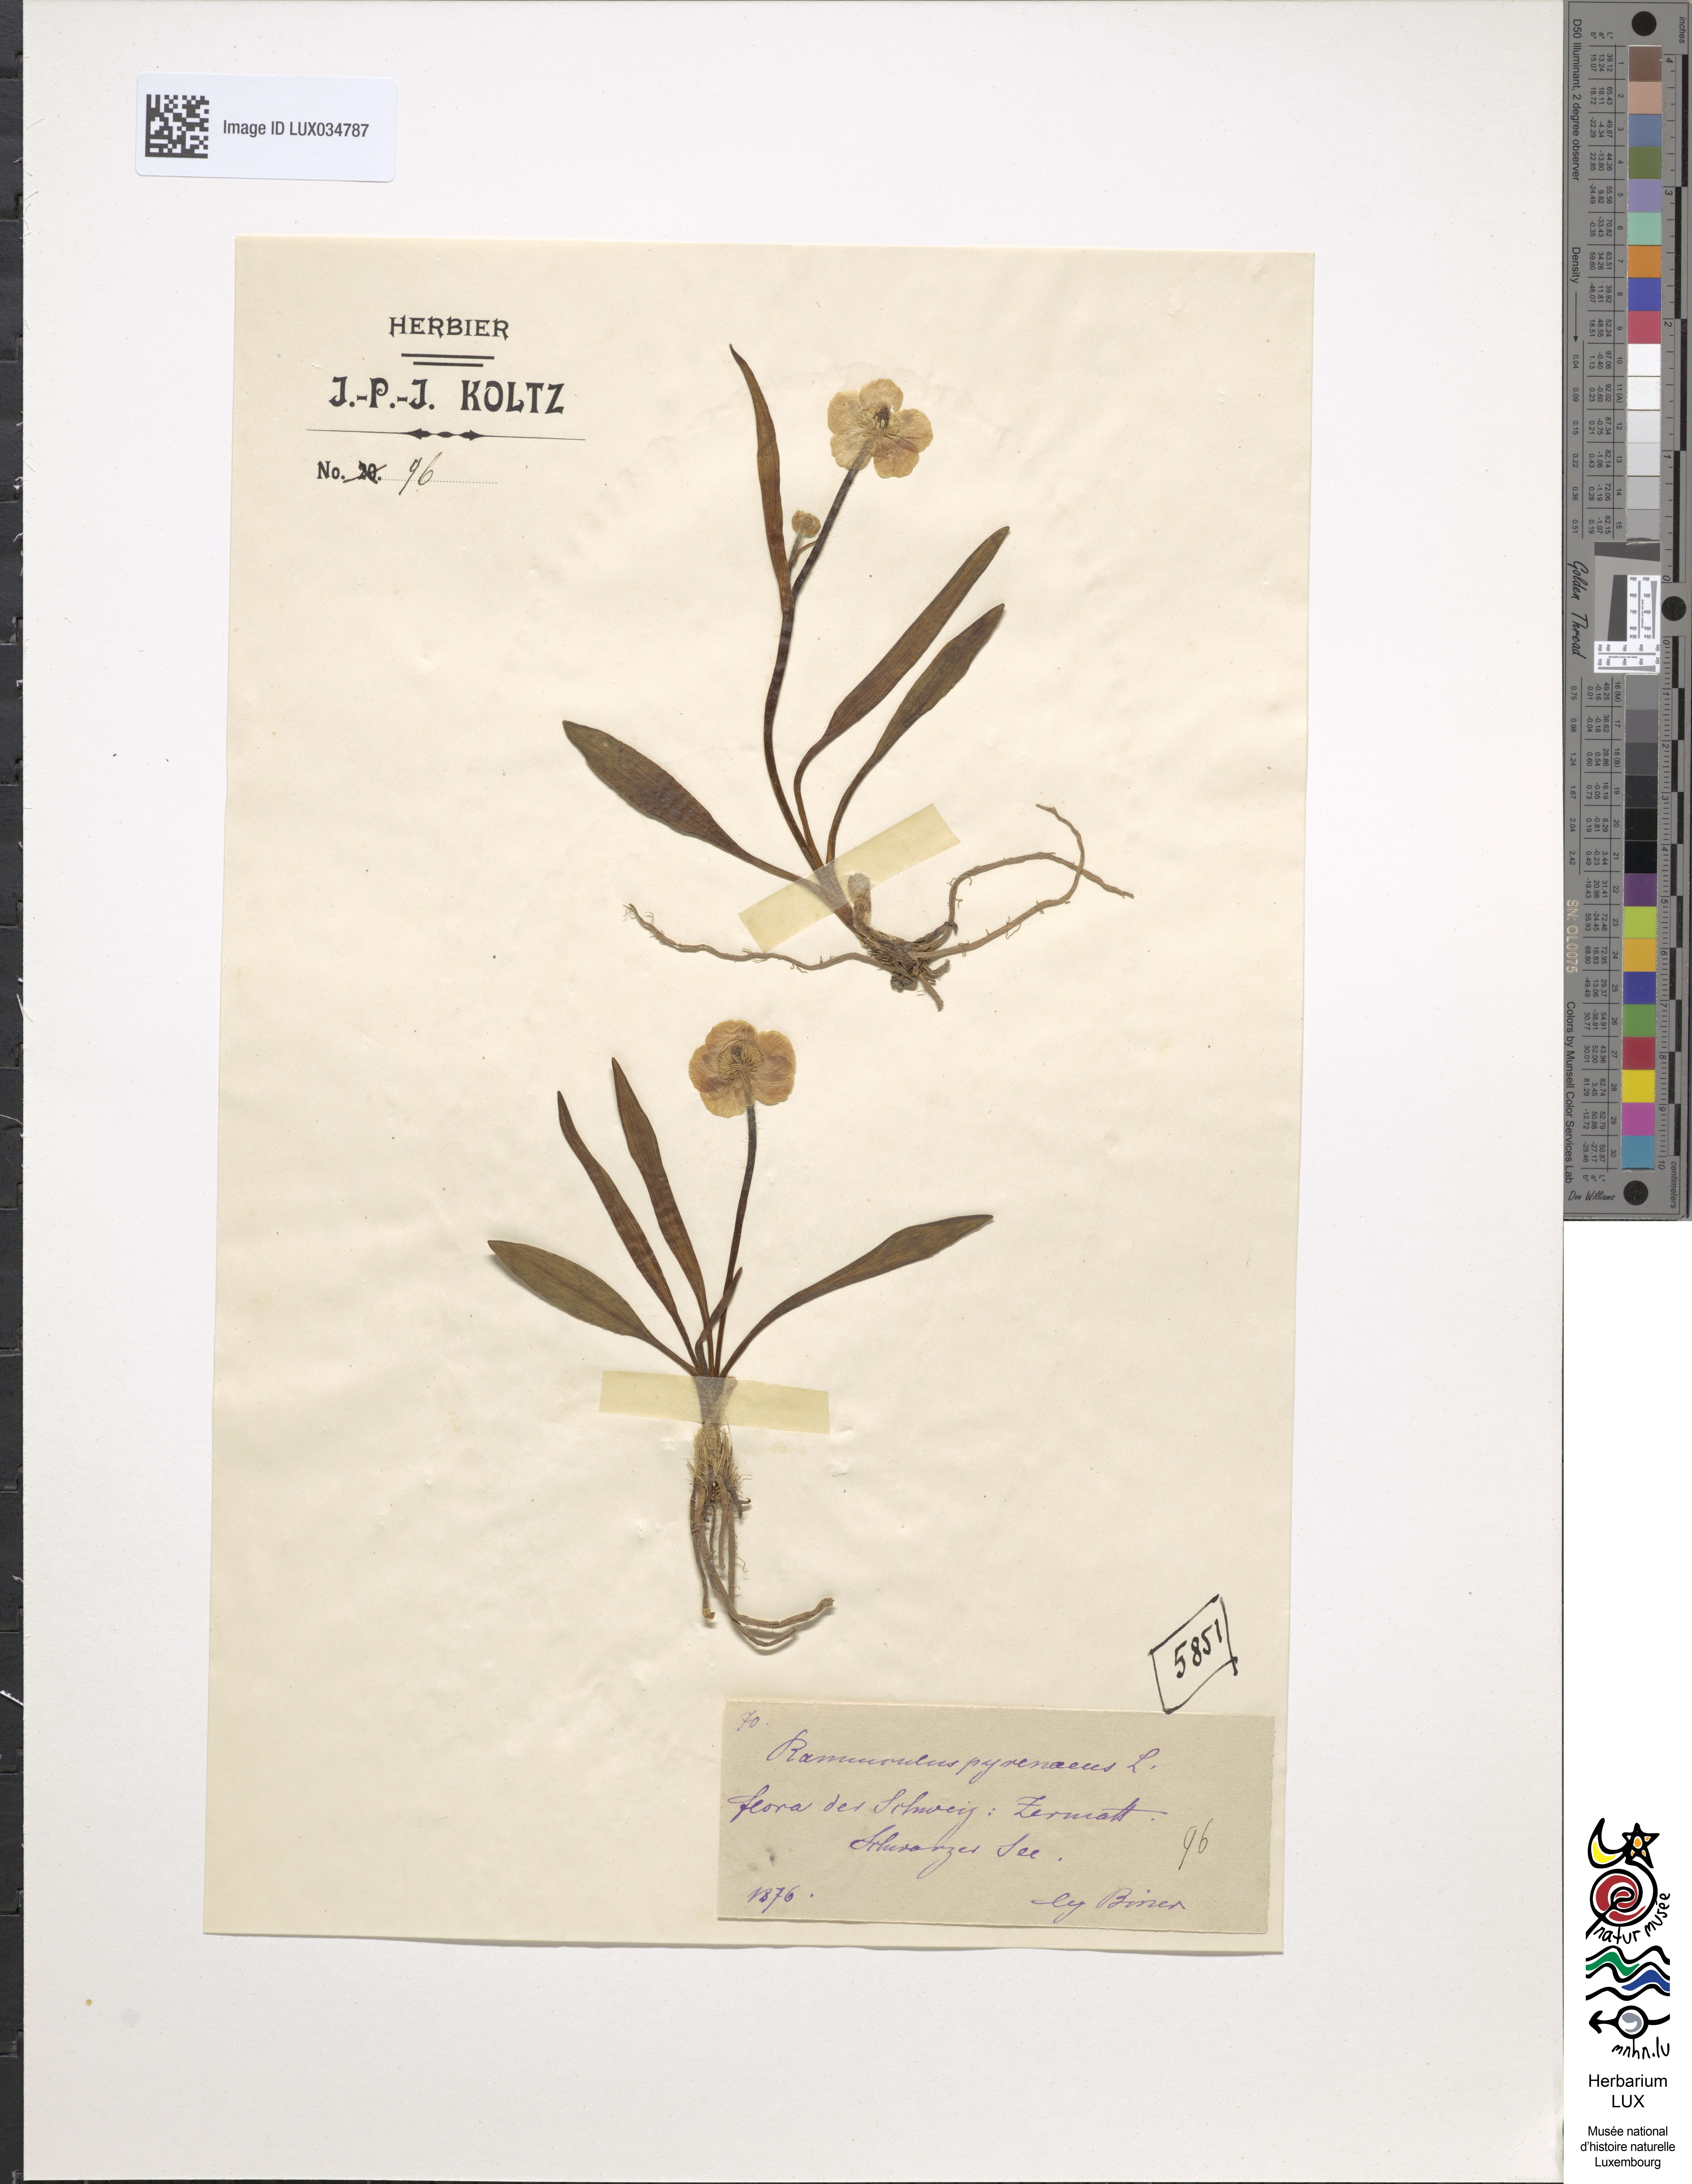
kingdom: Plantae
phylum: Tracheophyta
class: Magnoliopsida
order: Ranunculales
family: Ranunculaceae
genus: Ranunculus
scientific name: Ranunculus pyrenaeus
